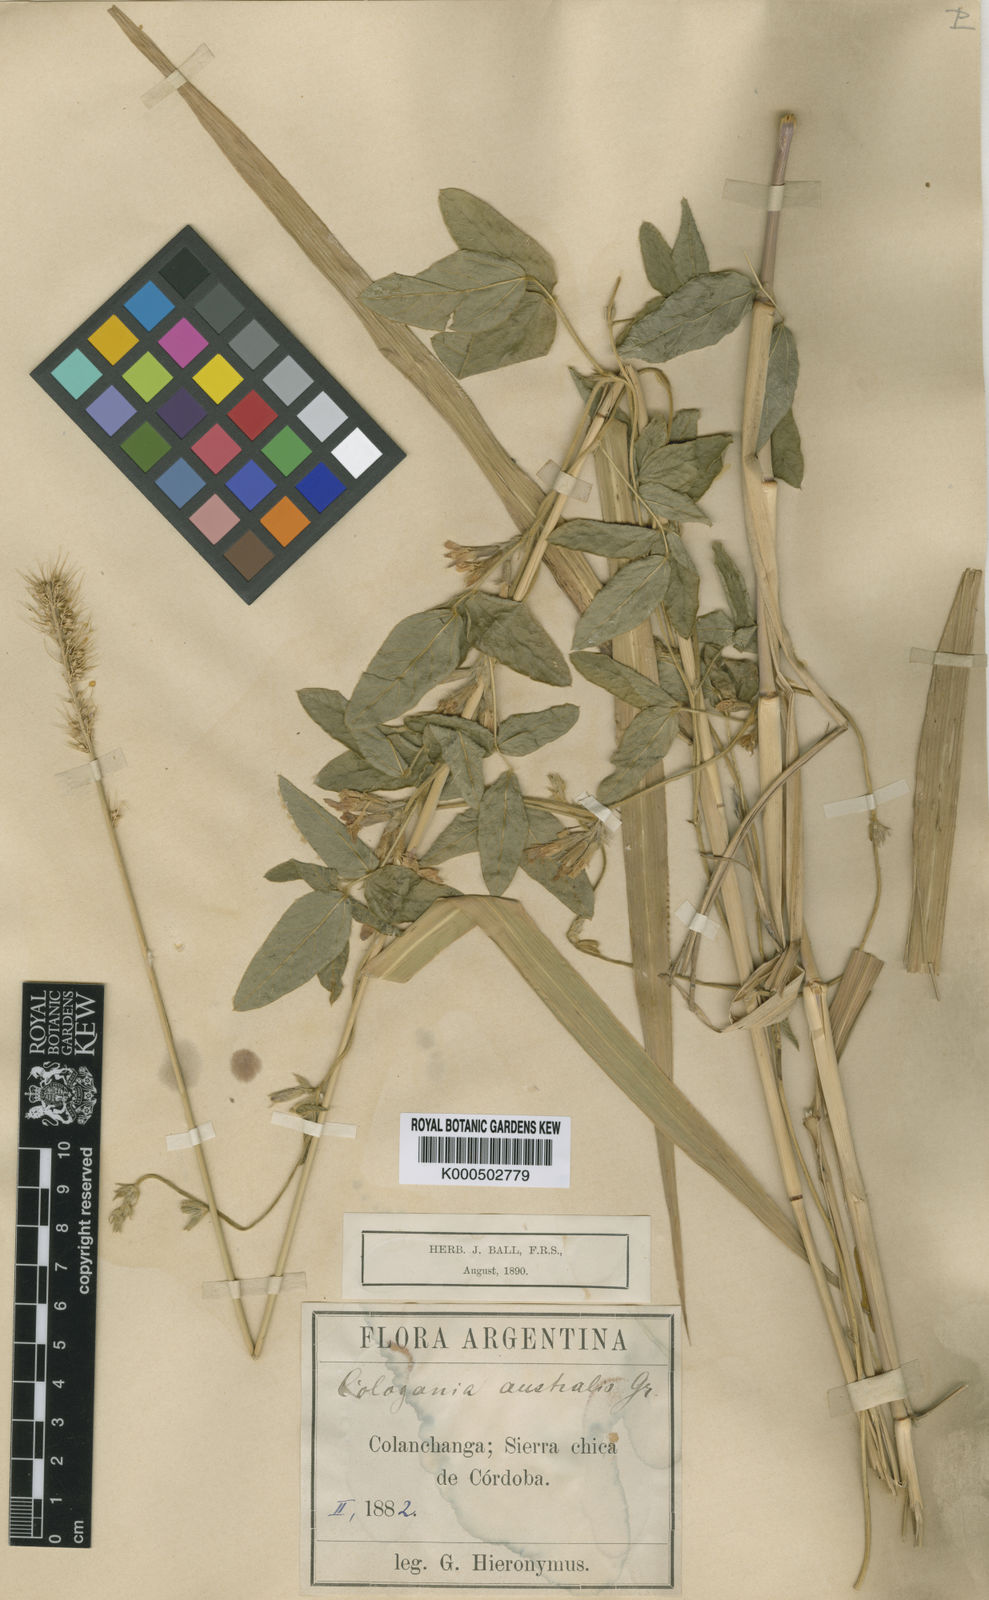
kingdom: Plantae
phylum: Tracheophyta
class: Magnoliopsida
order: Fabales
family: Fabaceae
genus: Cologania
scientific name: Cologania broussonetii
